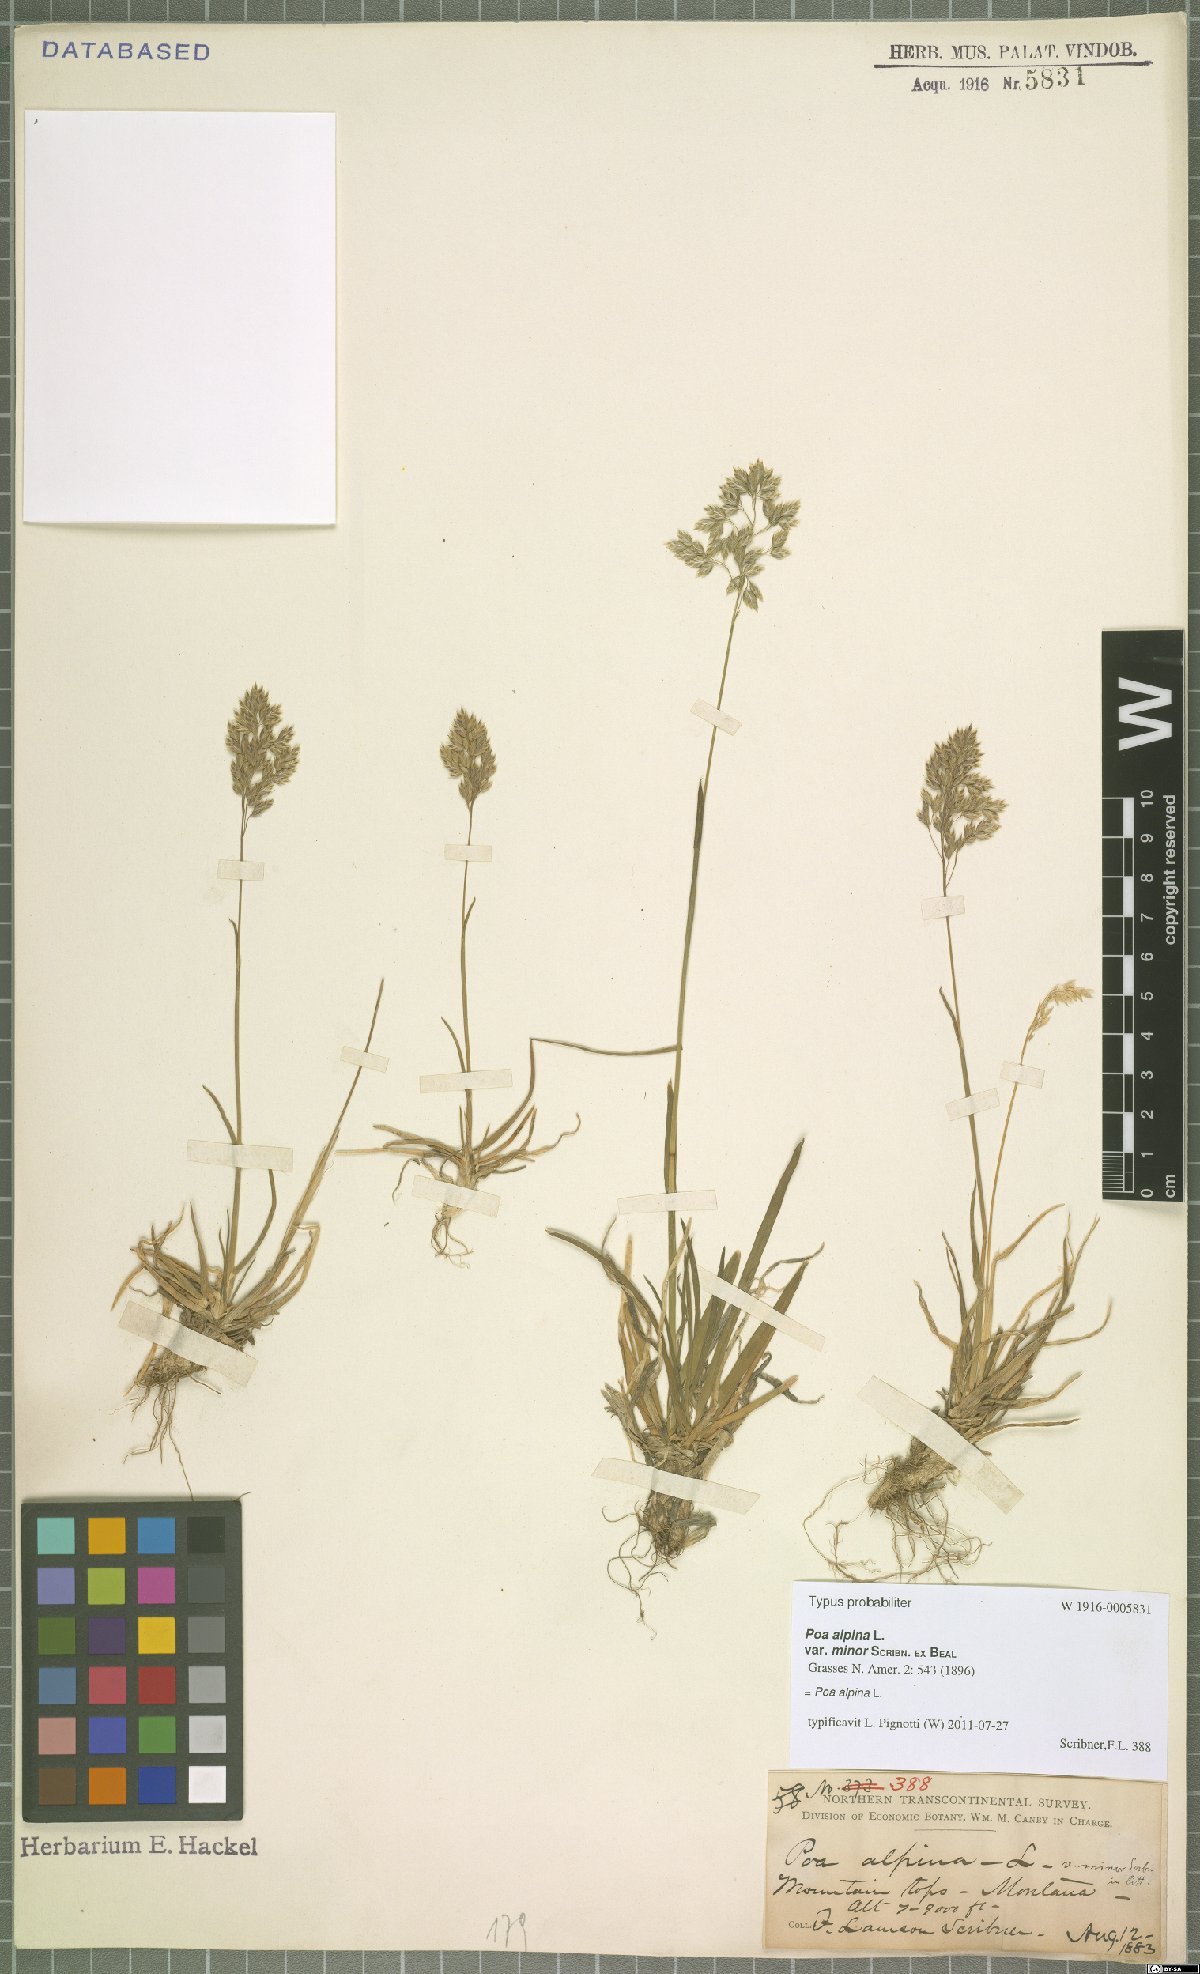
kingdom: Plantae
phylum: Tracheophyta
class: Liliopsida
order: Poales
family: Poaceae
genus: Poa
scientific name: Poa alpina
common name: Alpine bluegrass
